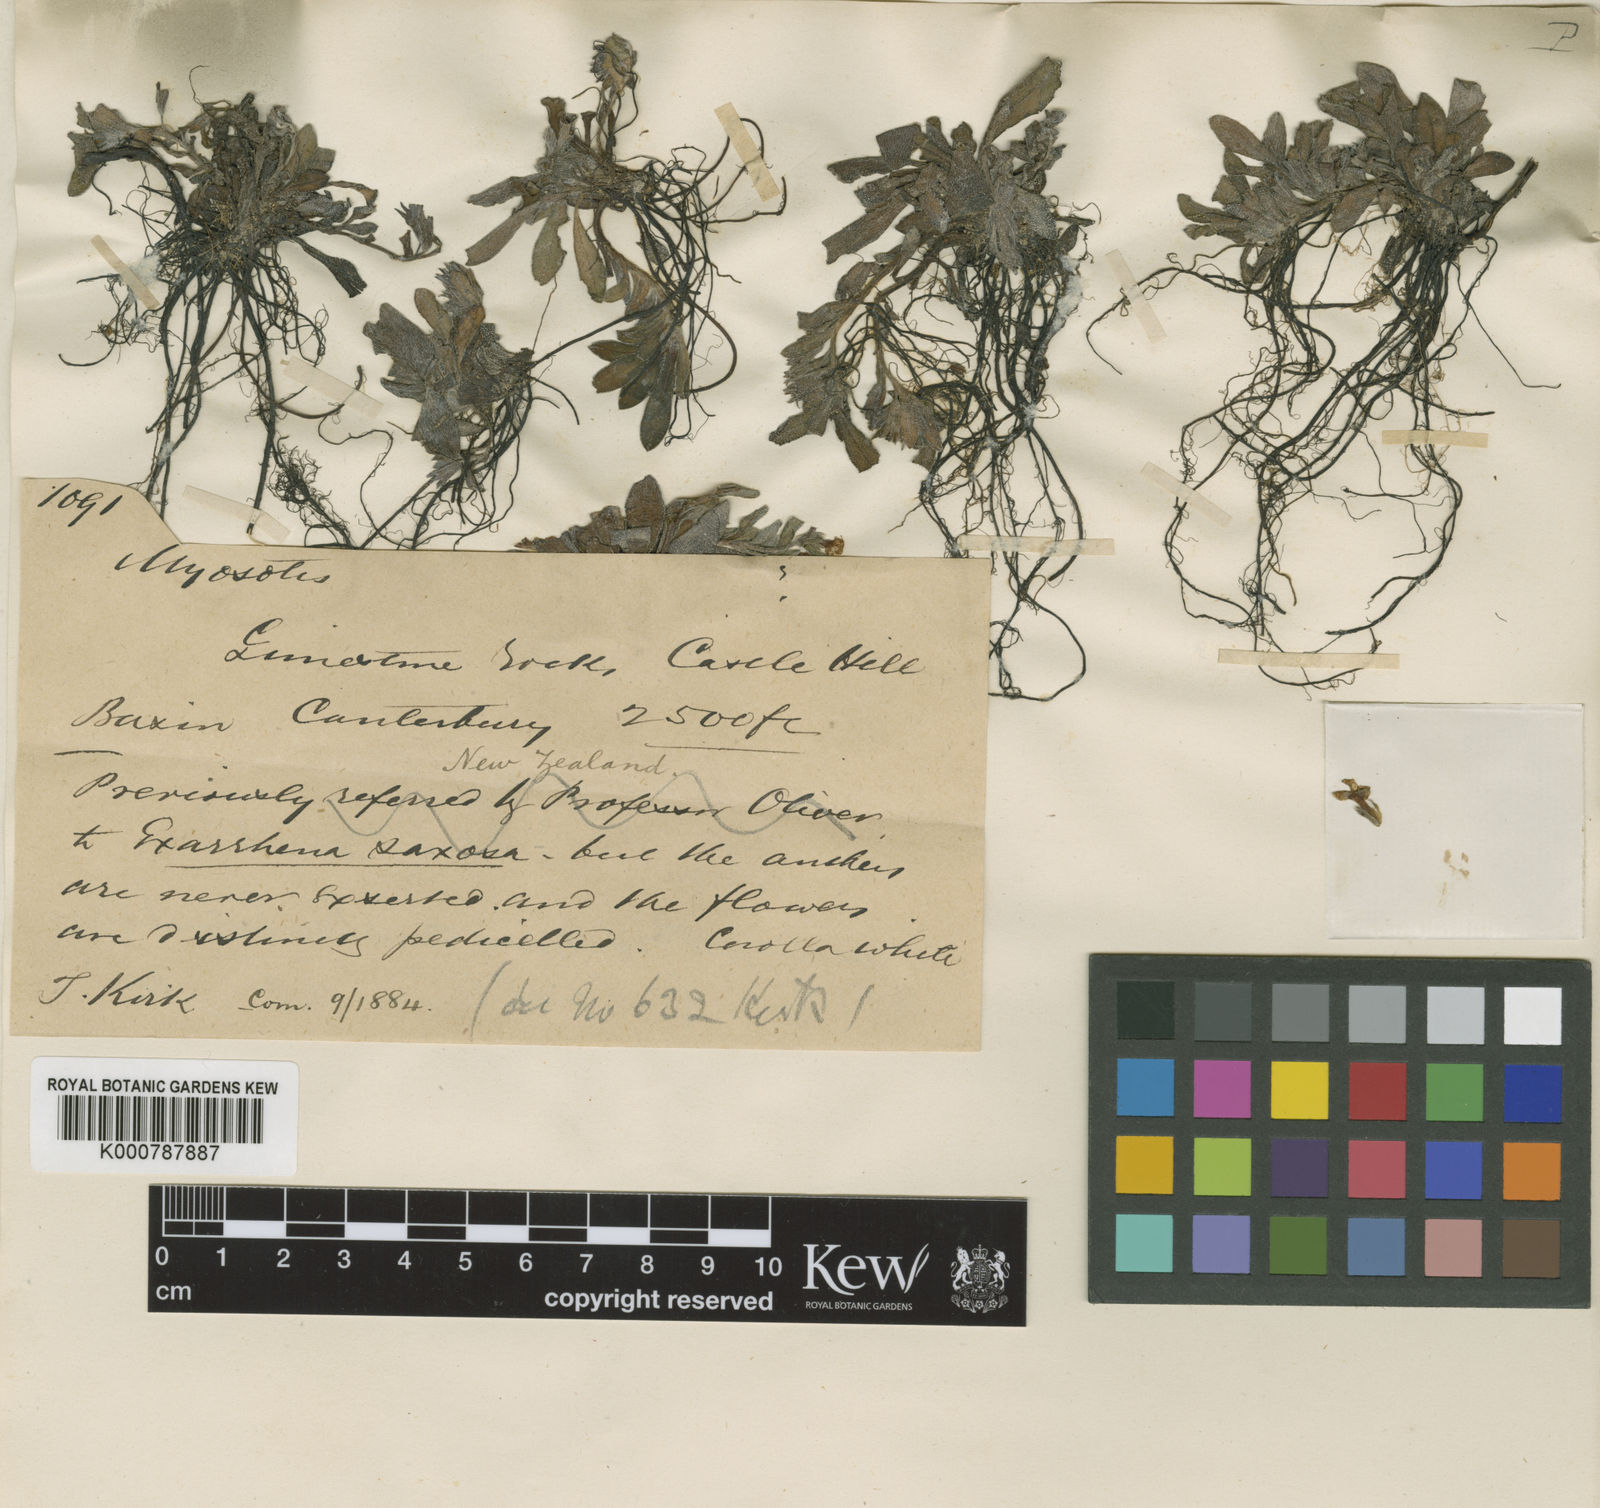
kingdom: Plantae
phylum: Tracheophyta
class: Magnoliopsida
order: Boraginales
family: Boraginaceae
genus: Myosotis
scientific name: Myosotis colensoi
